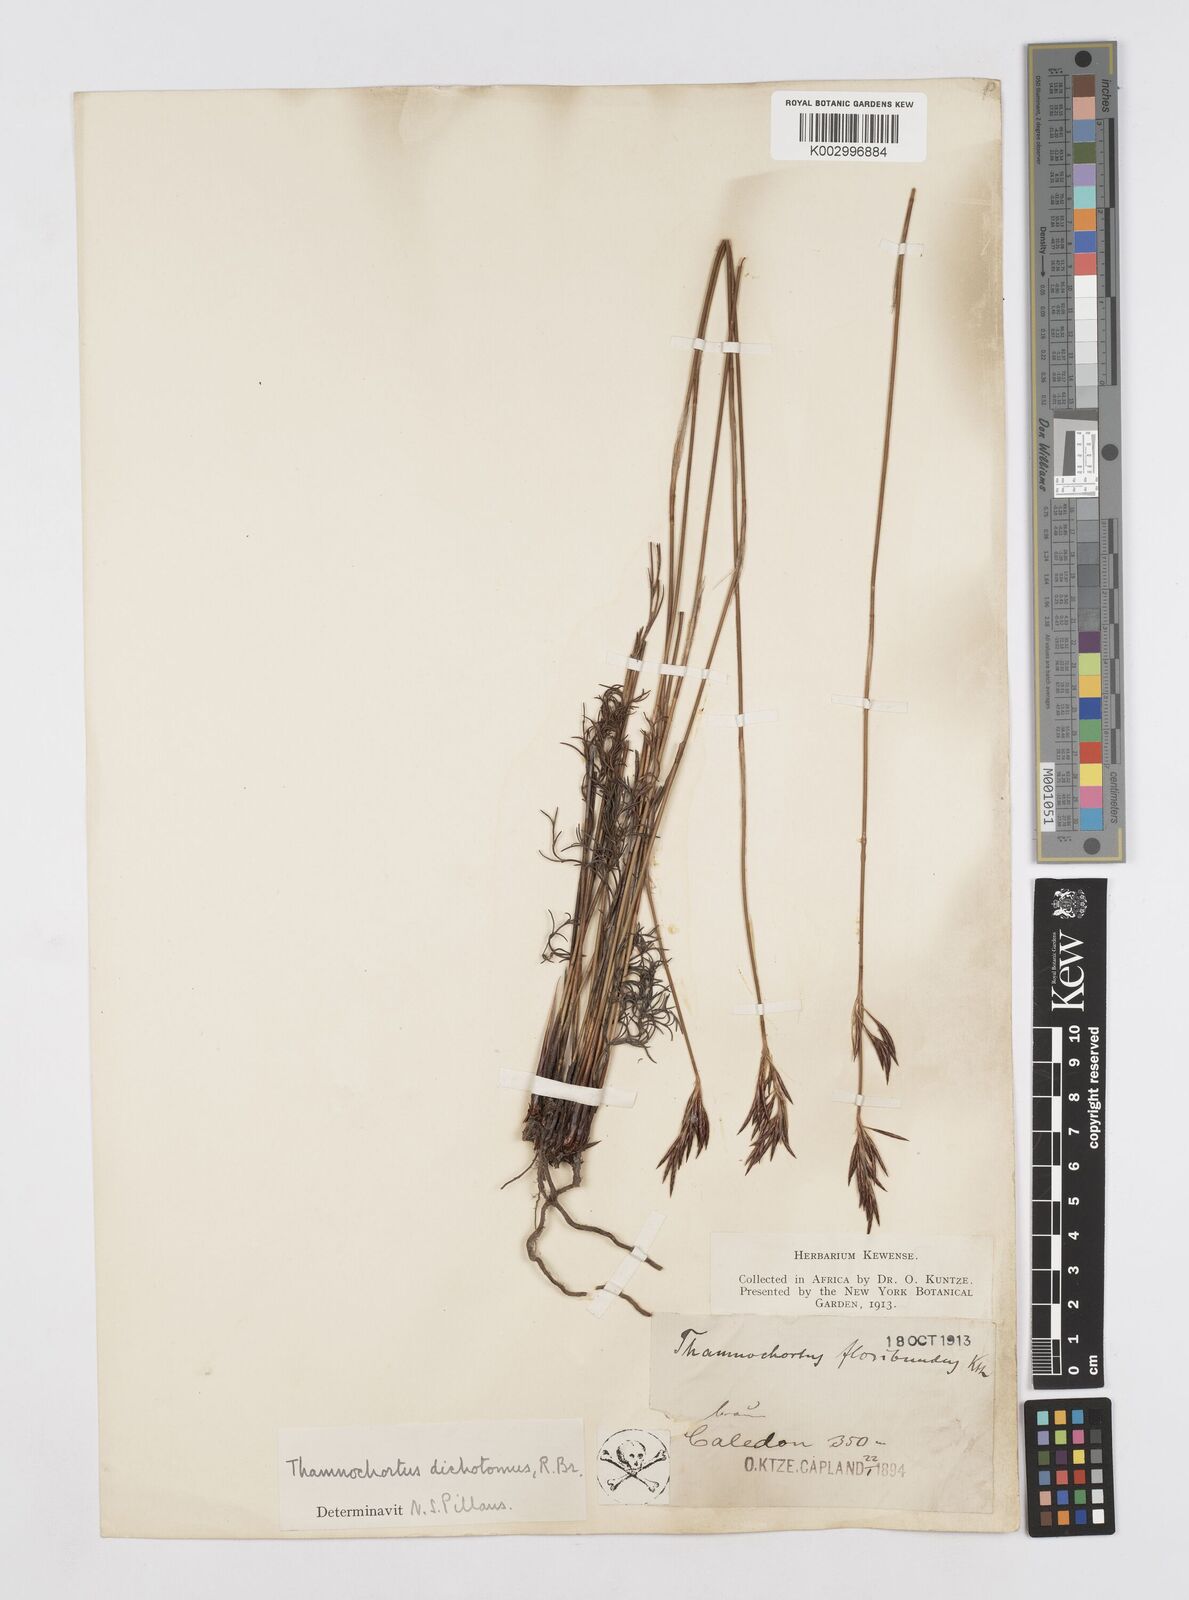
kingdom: Plantae
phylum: Tracheophyta
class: Liliopsida
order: Poales
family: Restionaceae
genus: Thamnochortus
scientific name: Thamnochortus lucens
